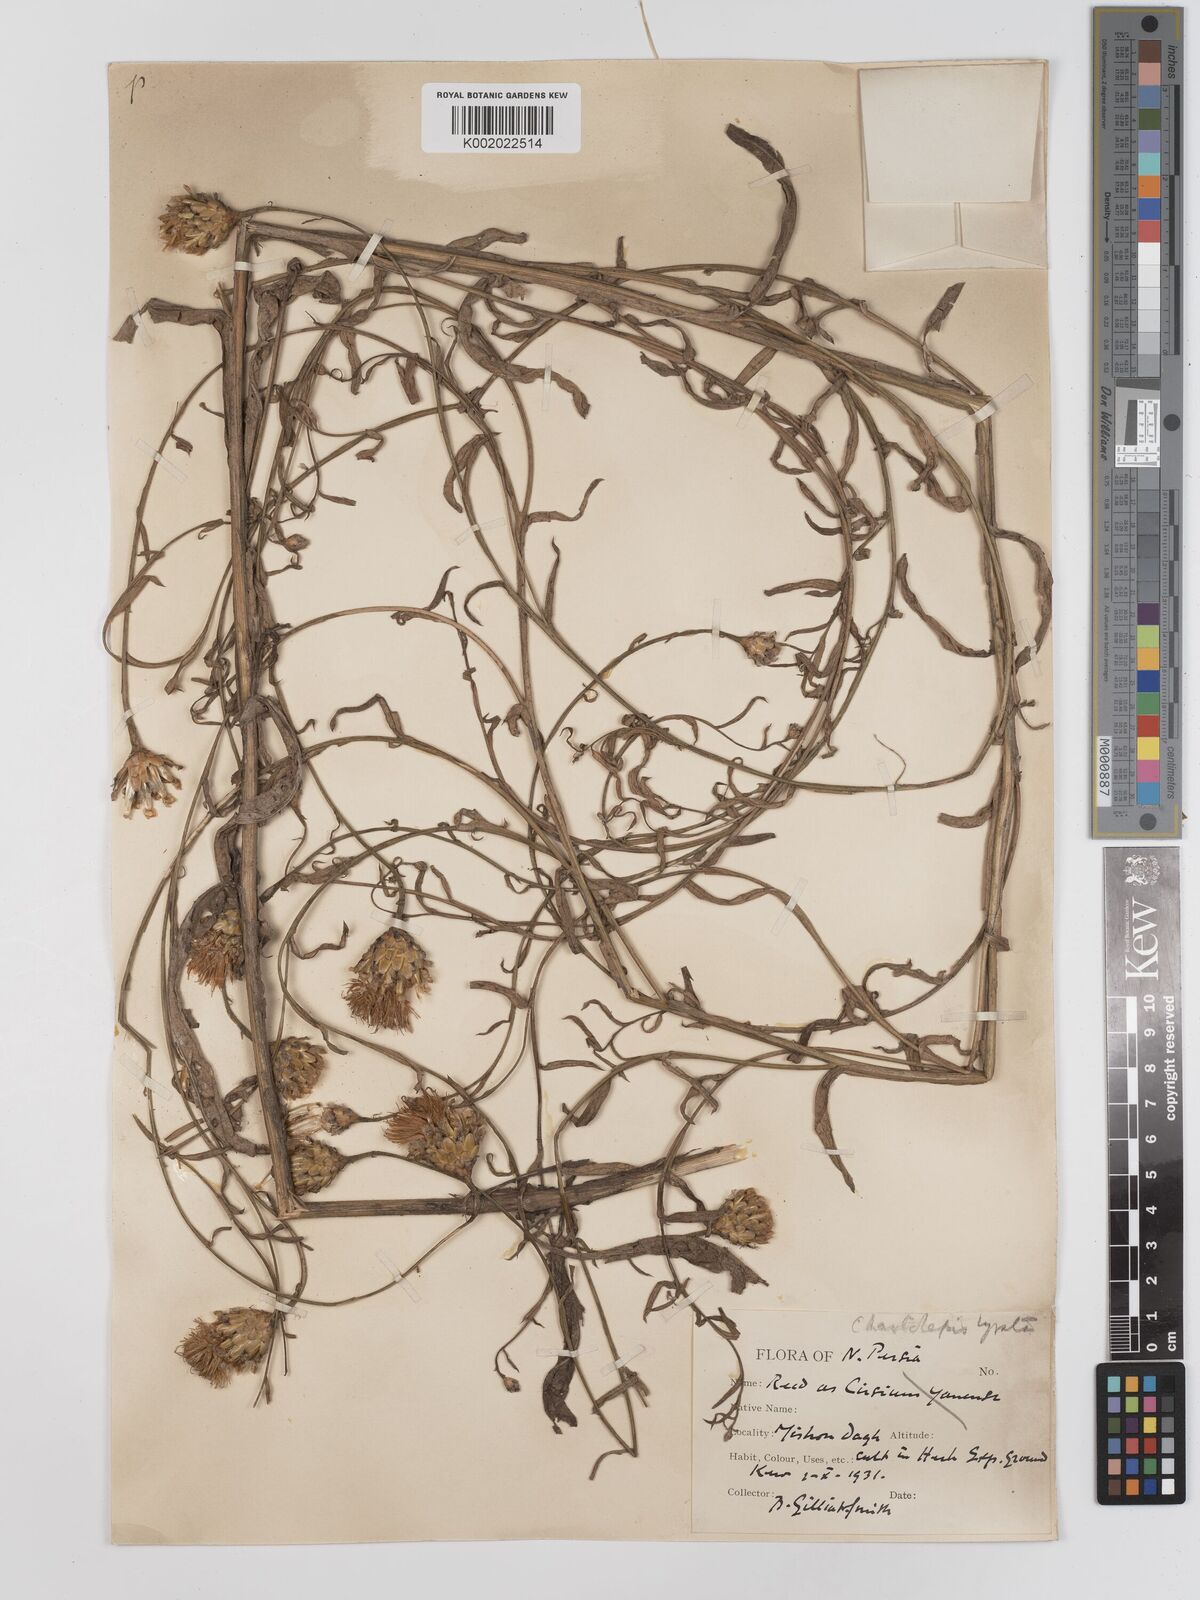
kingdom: Plantae
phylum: Tracheophyta
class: Magnoliopsida
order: Asterales
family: Asteraceae
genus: Centaurea
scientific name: Centaurea pterocaula
